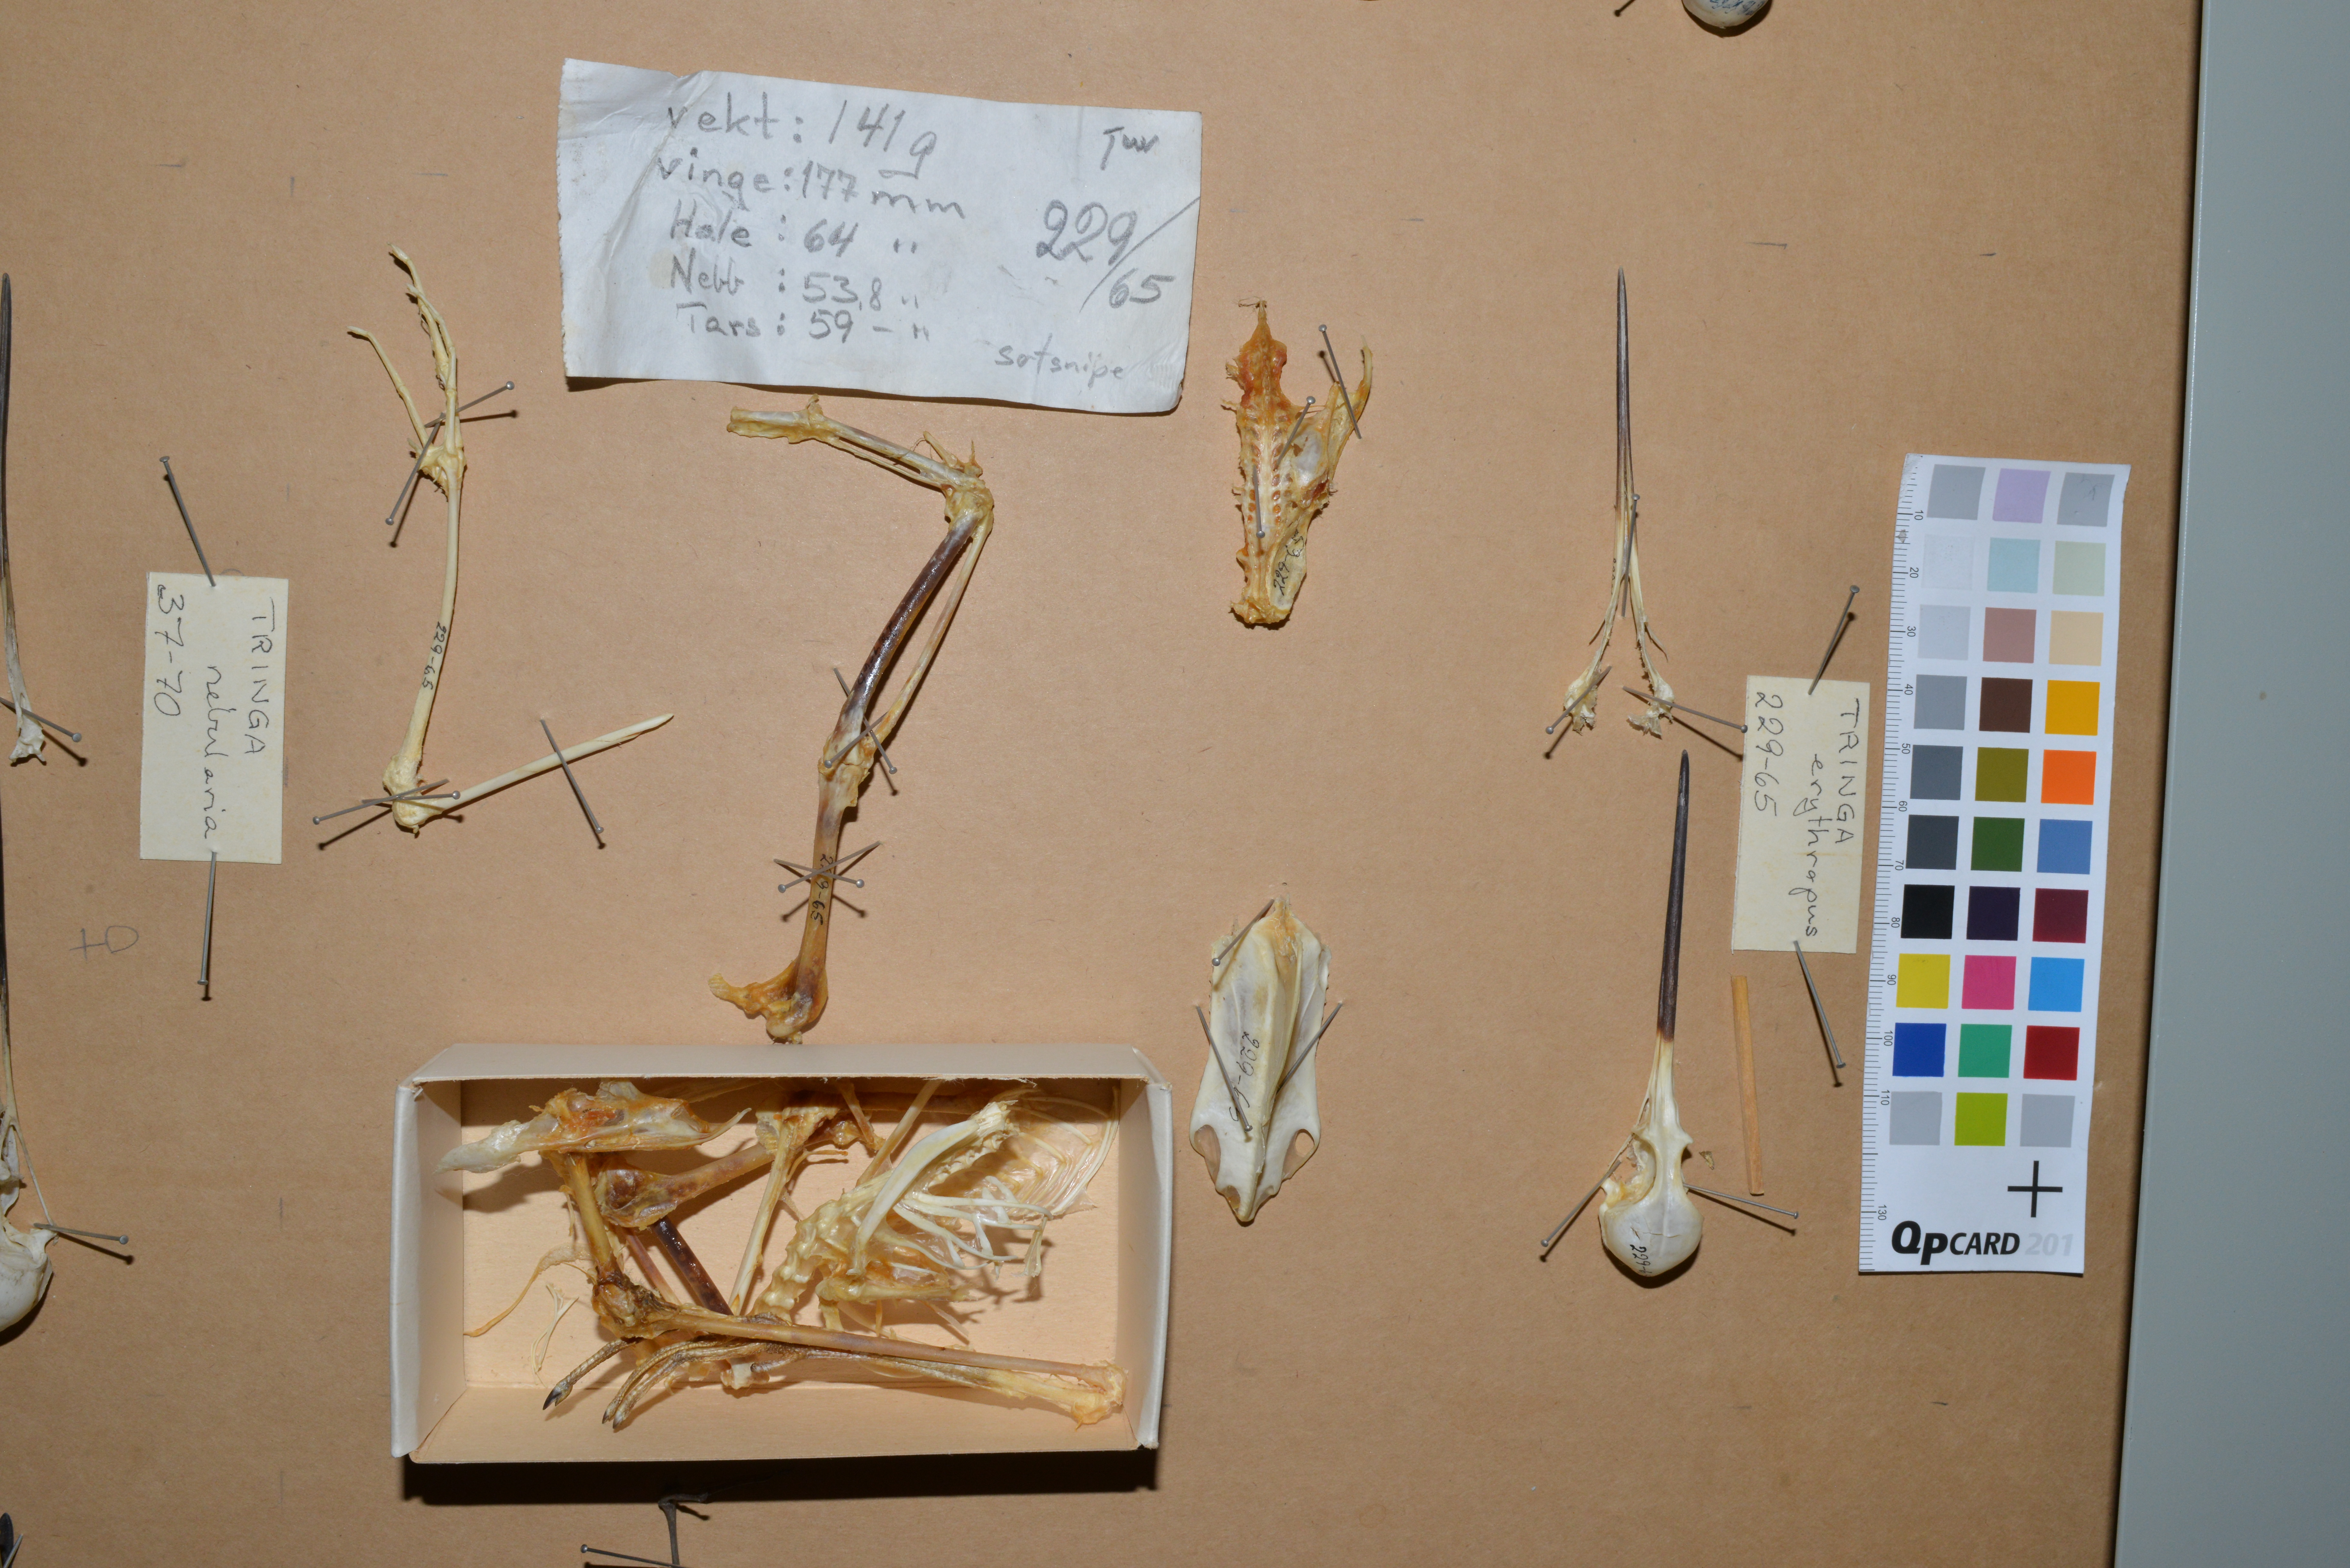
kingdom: Animalia
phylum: Chordata
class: Aves
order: Charadriiformes
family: Scolopacidae
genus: Tringa
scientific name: Tringa erythropus
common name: Spotted redshank
